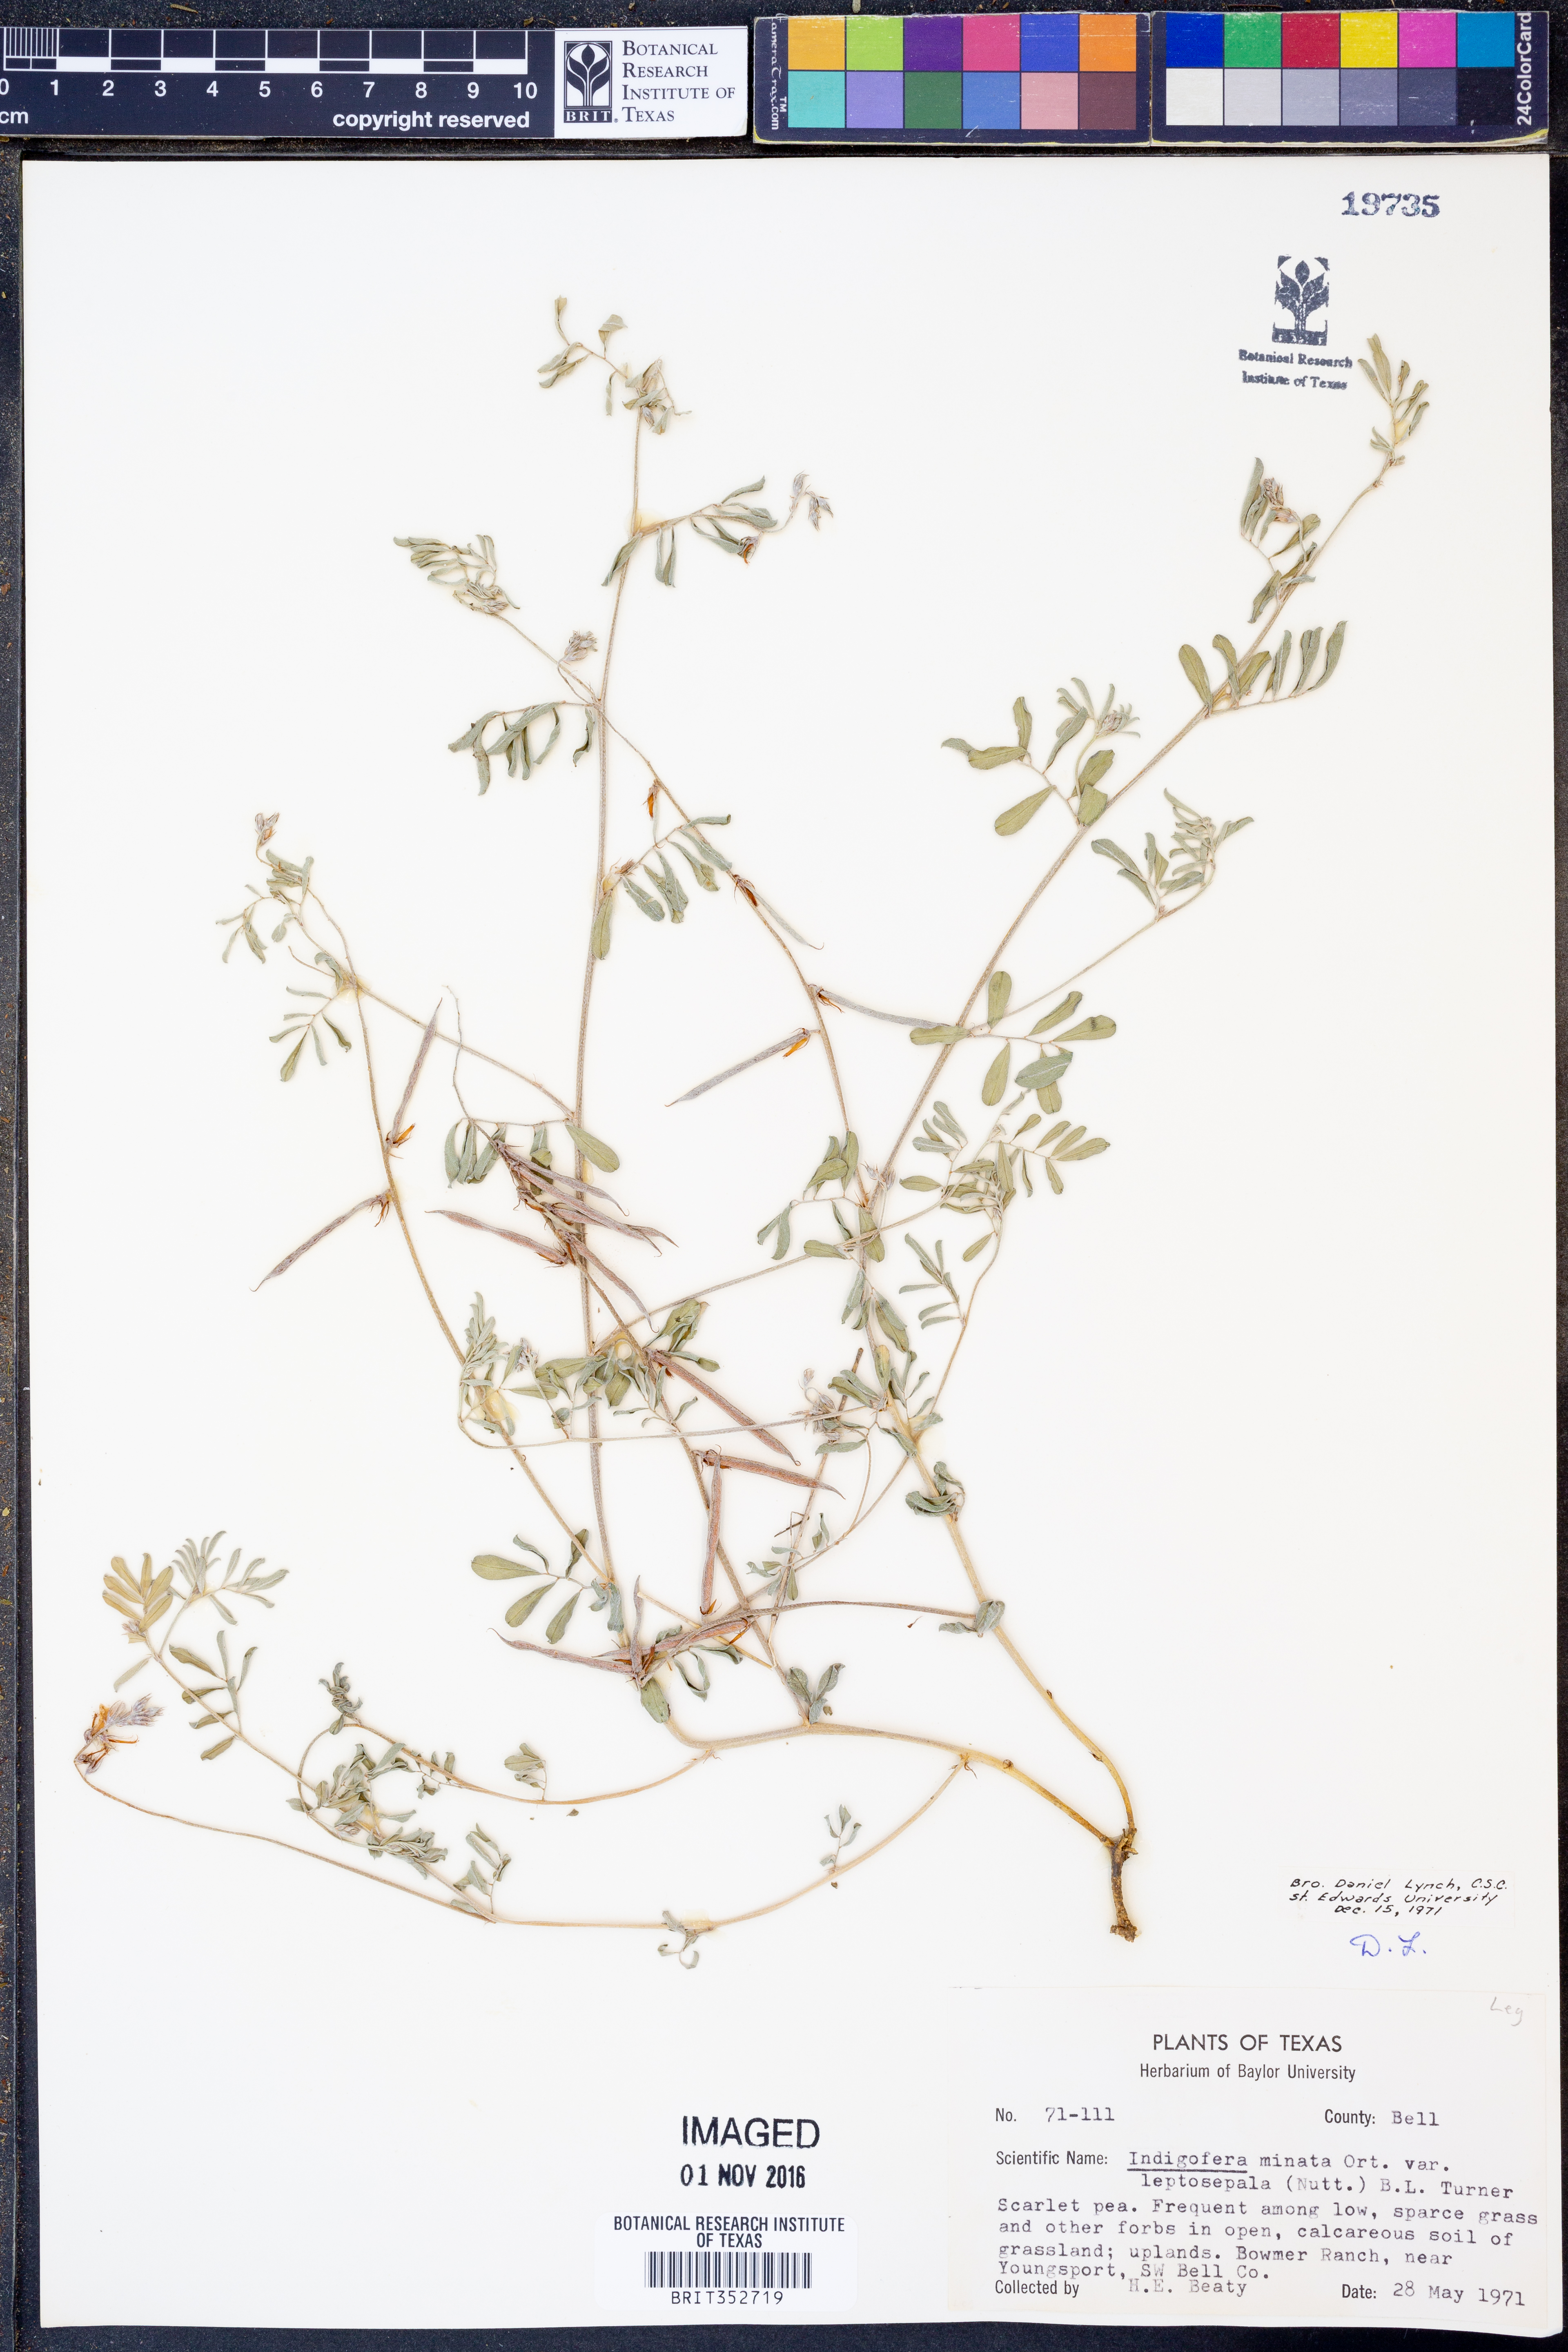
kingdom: Plantae
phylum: Tracheophyta
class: Magnoliopsida
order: Fabales
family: Fabaceae
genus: Indigofera
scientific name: Indigofera miniata
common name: Coast indigo
